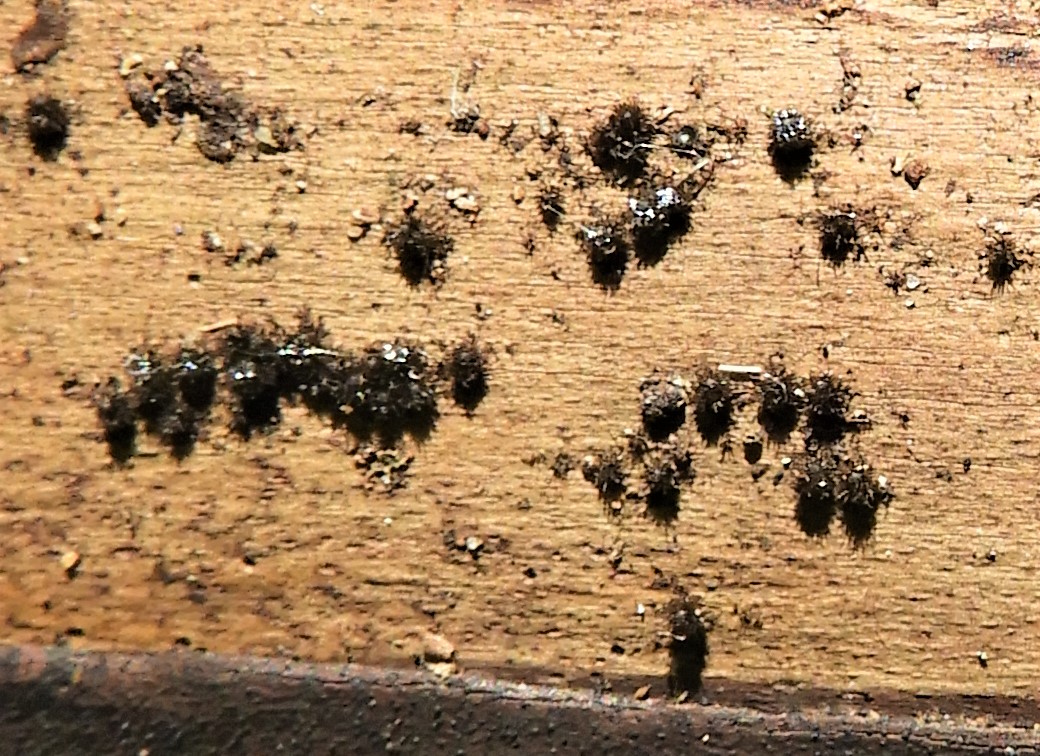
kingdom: Fungi
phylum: Ascomycota
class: Sordariomycetes
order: Sordariales
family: Helminthosphaeriaceae
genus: Echinosphaeria
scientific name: Echinosphaeria
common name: børstekerne
